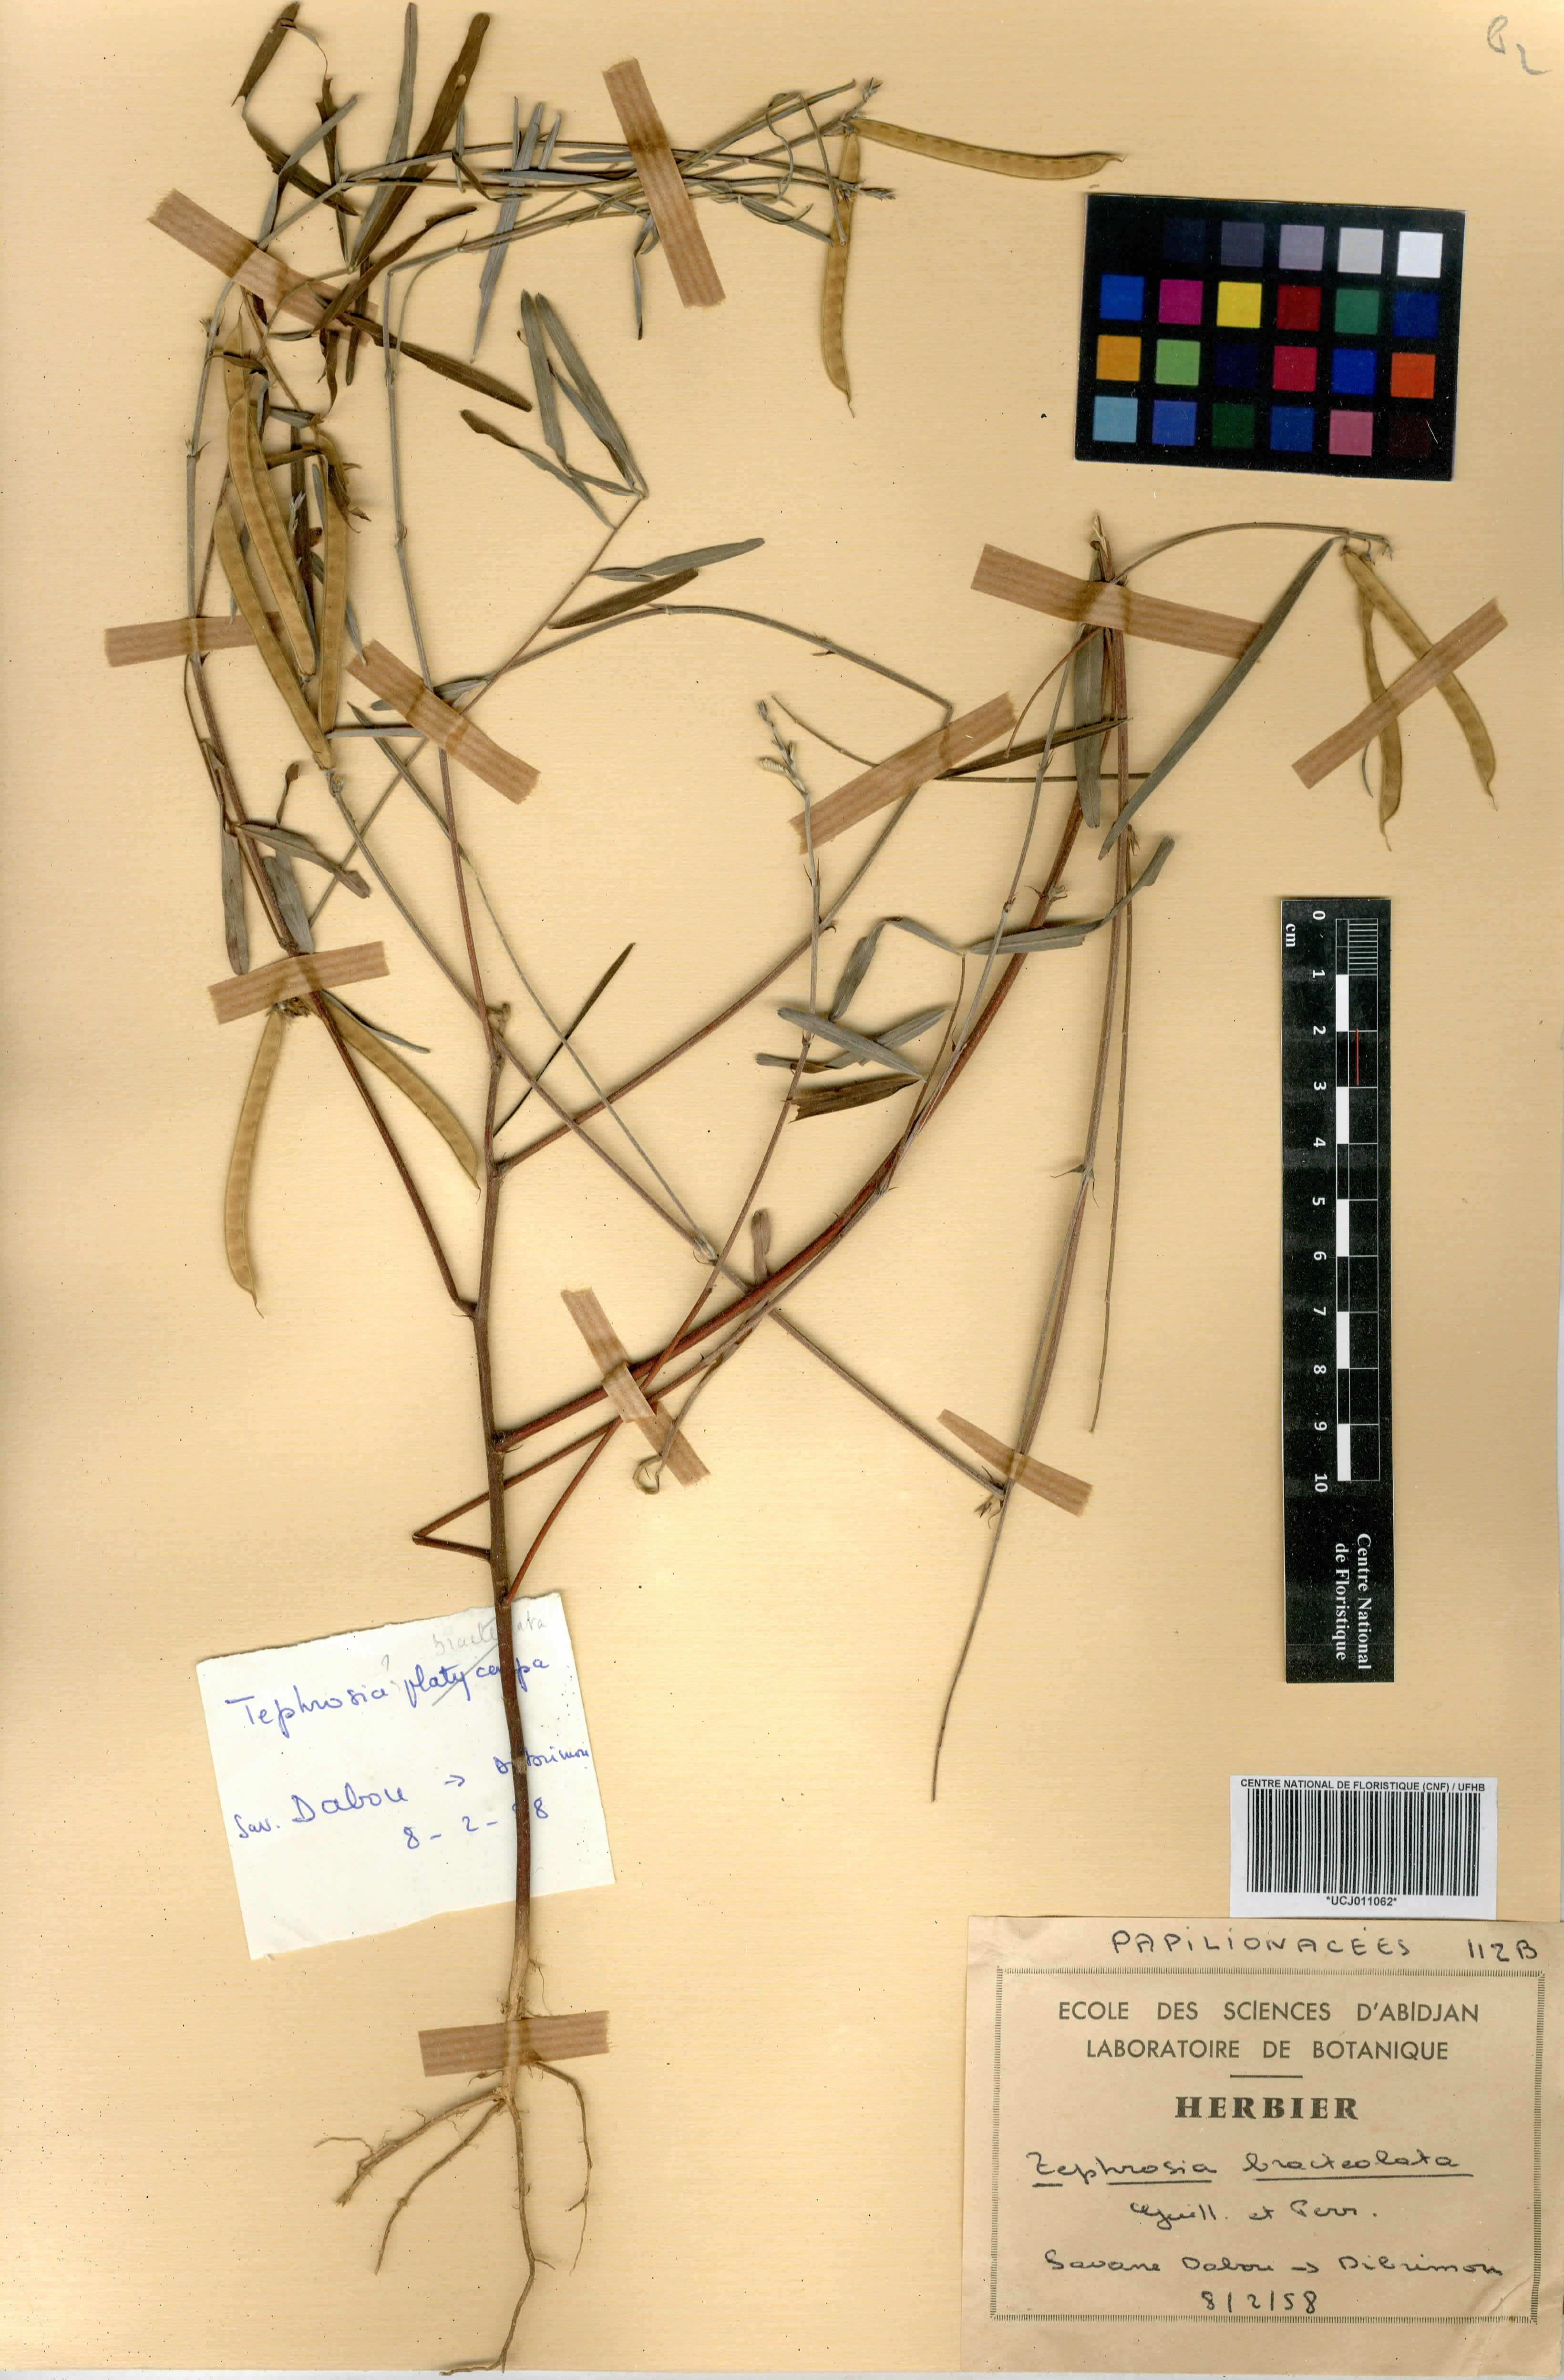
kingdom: Plantae
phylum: Tracheophyta
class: Magnoliopsida
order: Fabales
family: Fabaceae
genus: Tephrosia
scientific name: Tephrosia bracteolata
